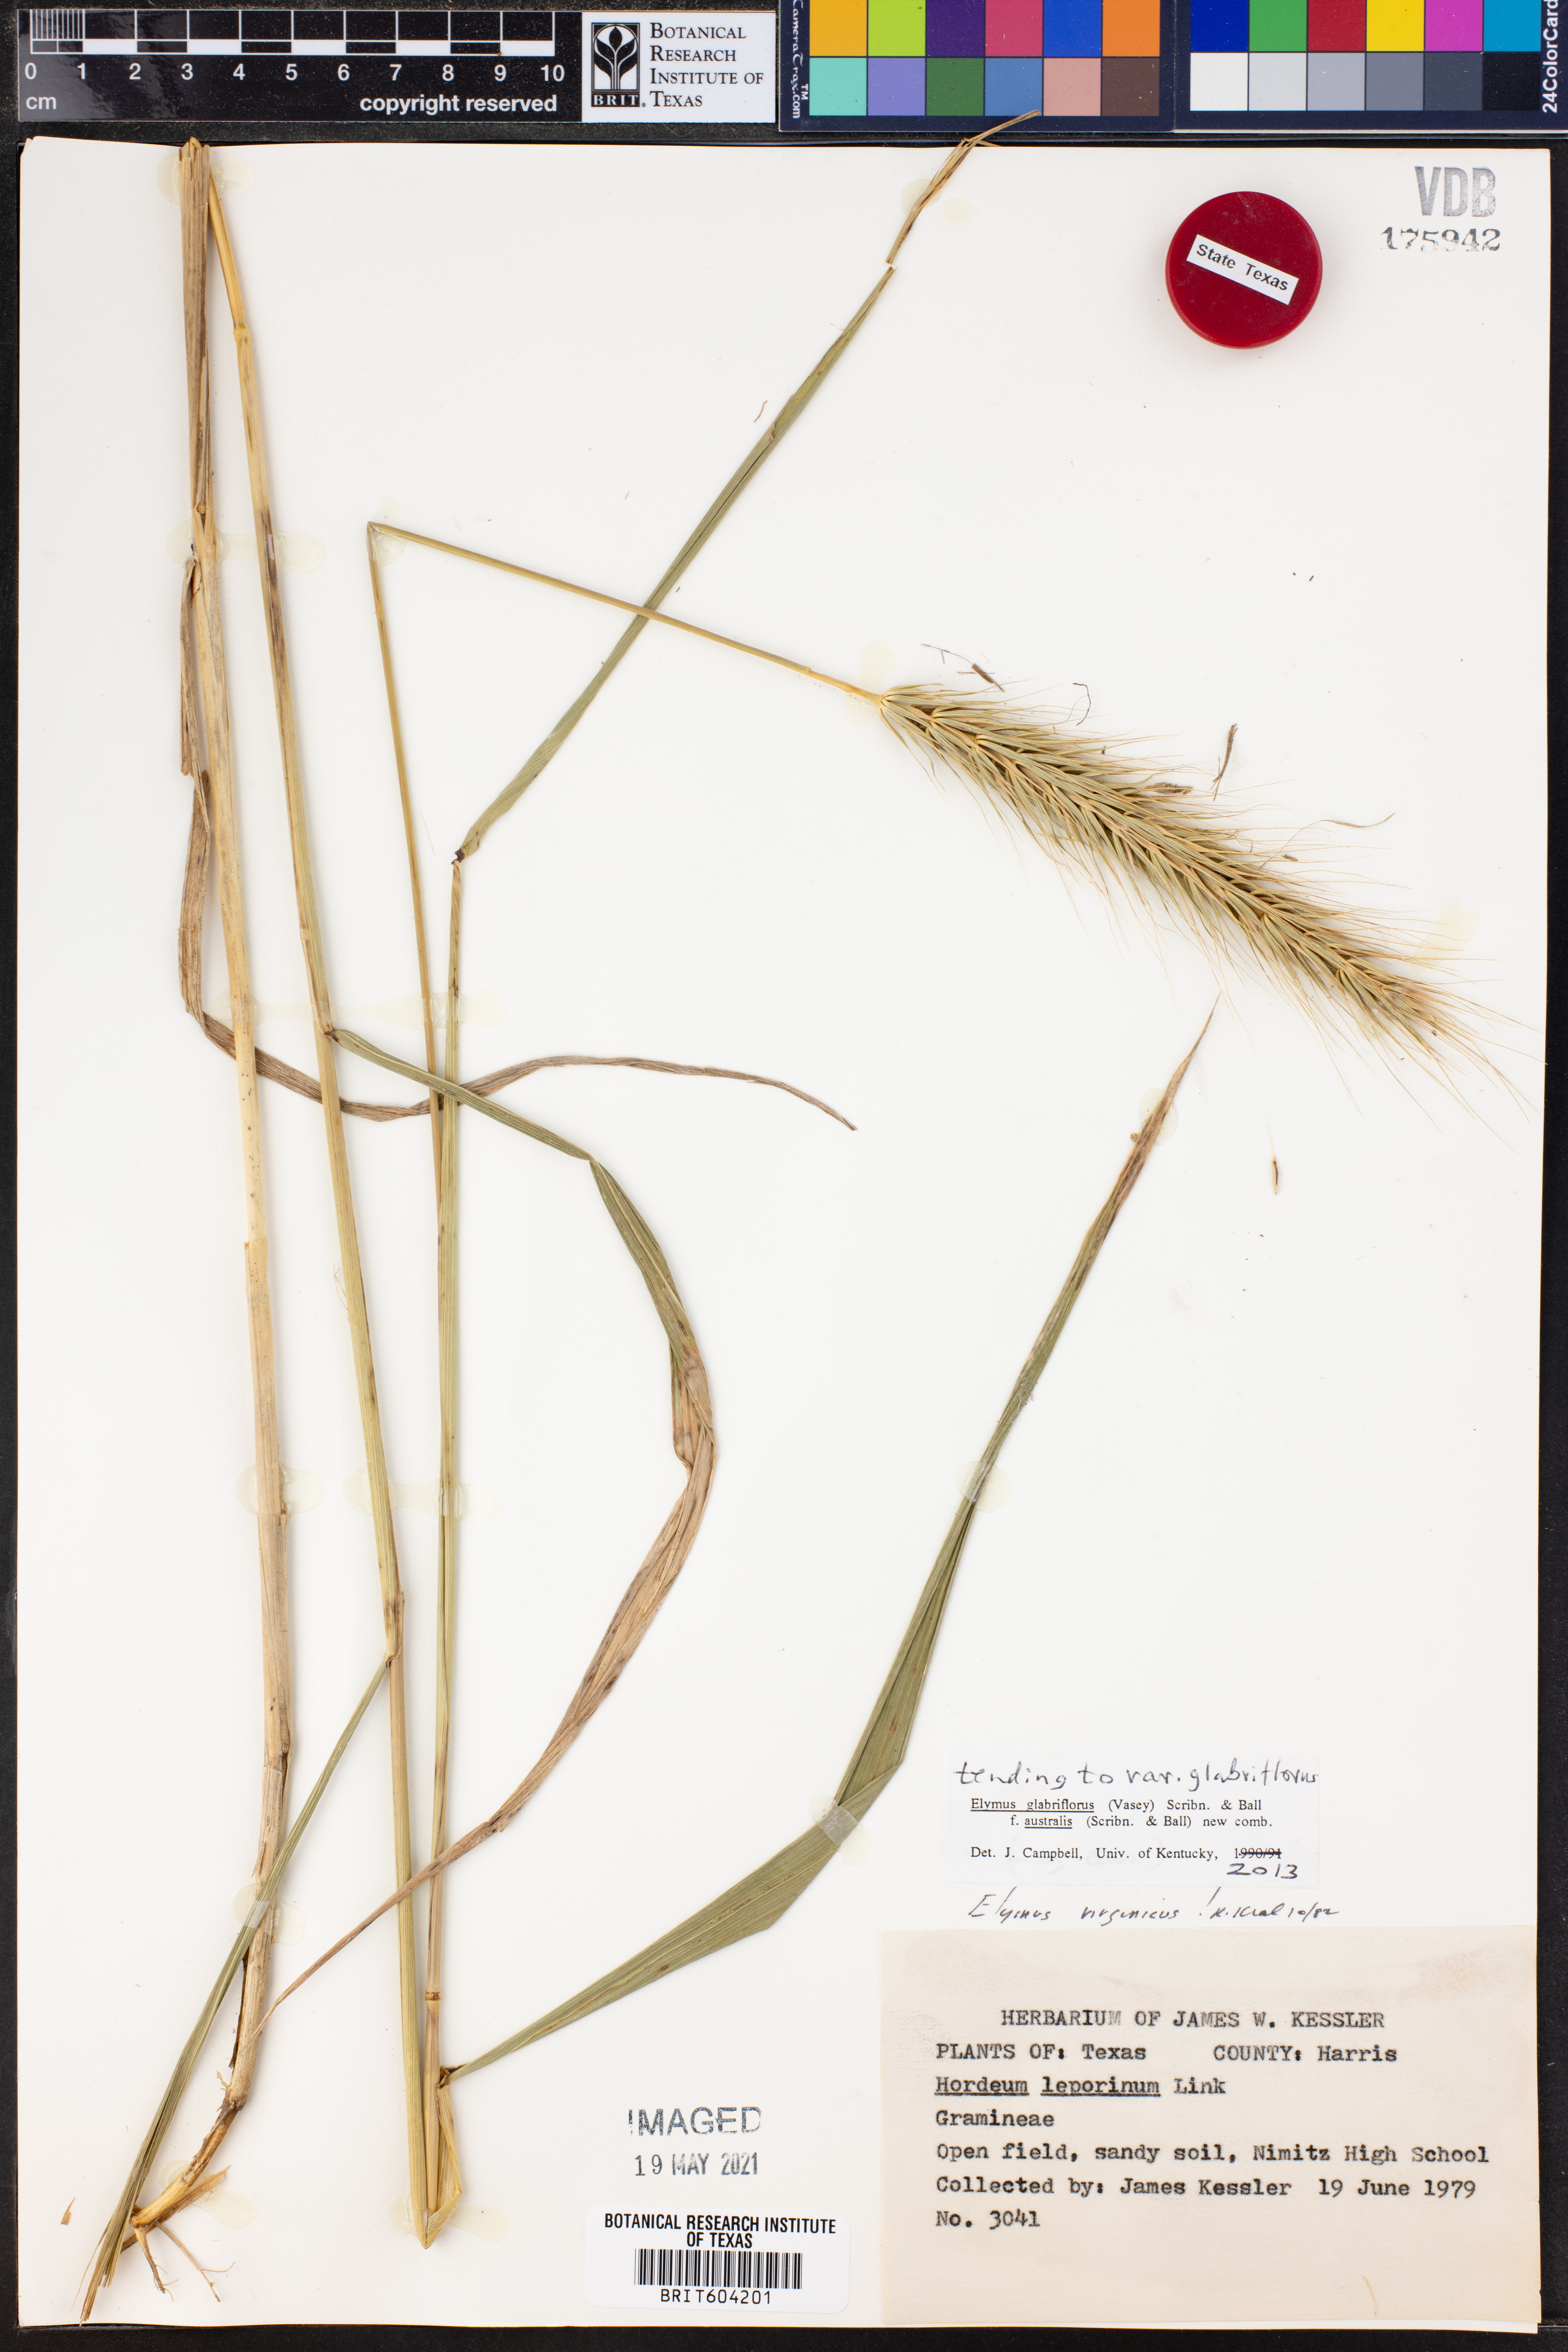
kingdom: Plantae
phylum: Tracheophyta
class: Liliopsida
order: Poales
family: Poaceae
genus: Elymus
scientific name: Elymus virginicus
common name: Common eastern wildrye
